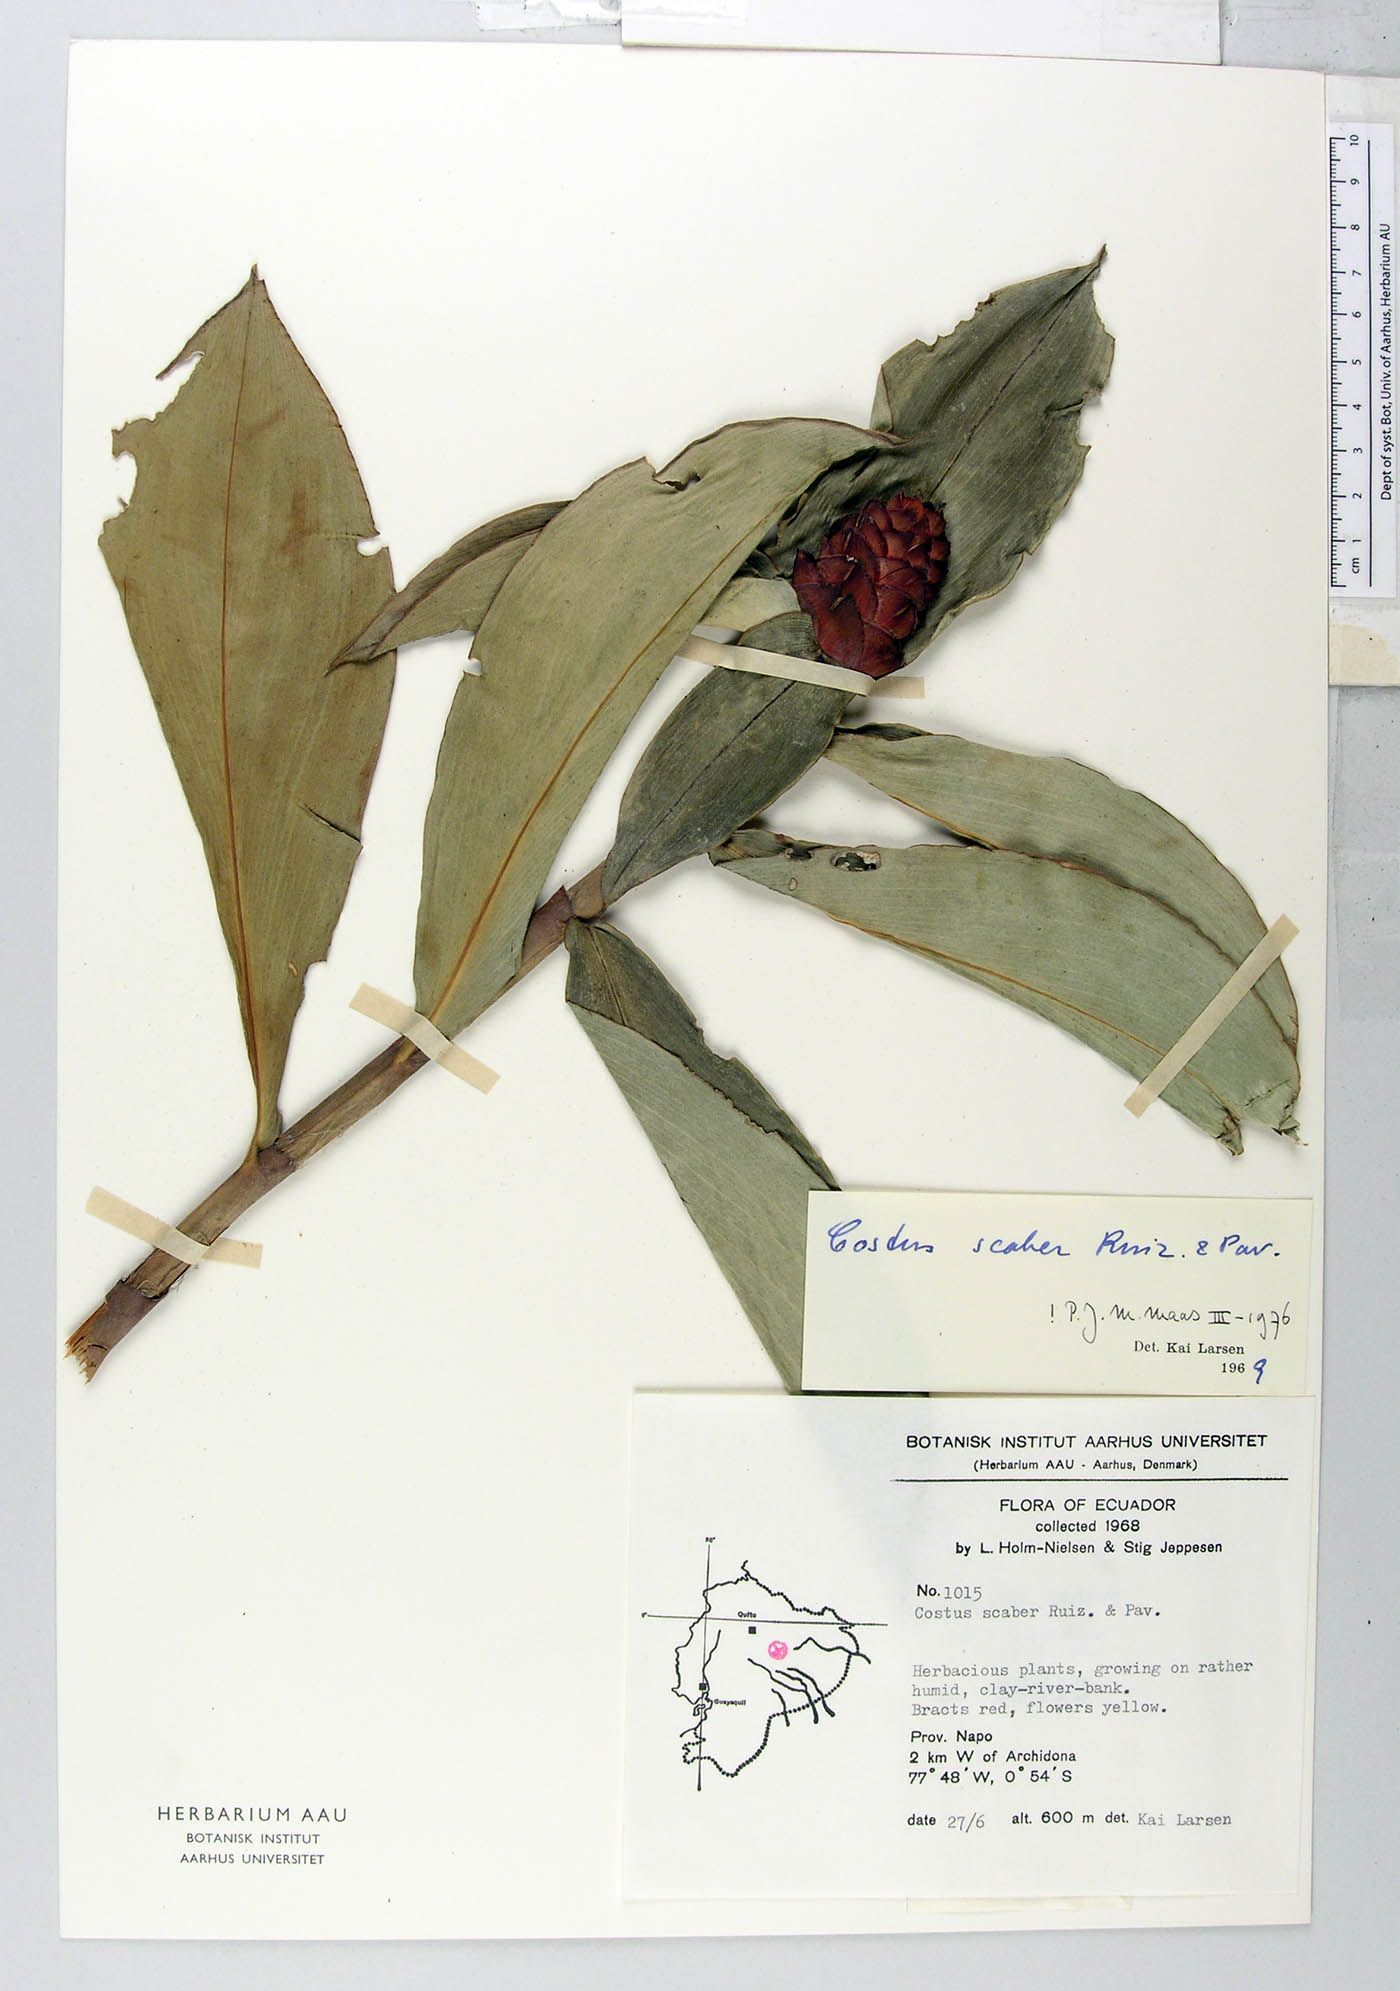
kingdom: Plantae
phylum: Tracheophyta
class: Liliopsida
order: Zingiberales
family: Costaceae
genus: Costus
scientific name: Costus scaber
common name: Spiral head ginger
